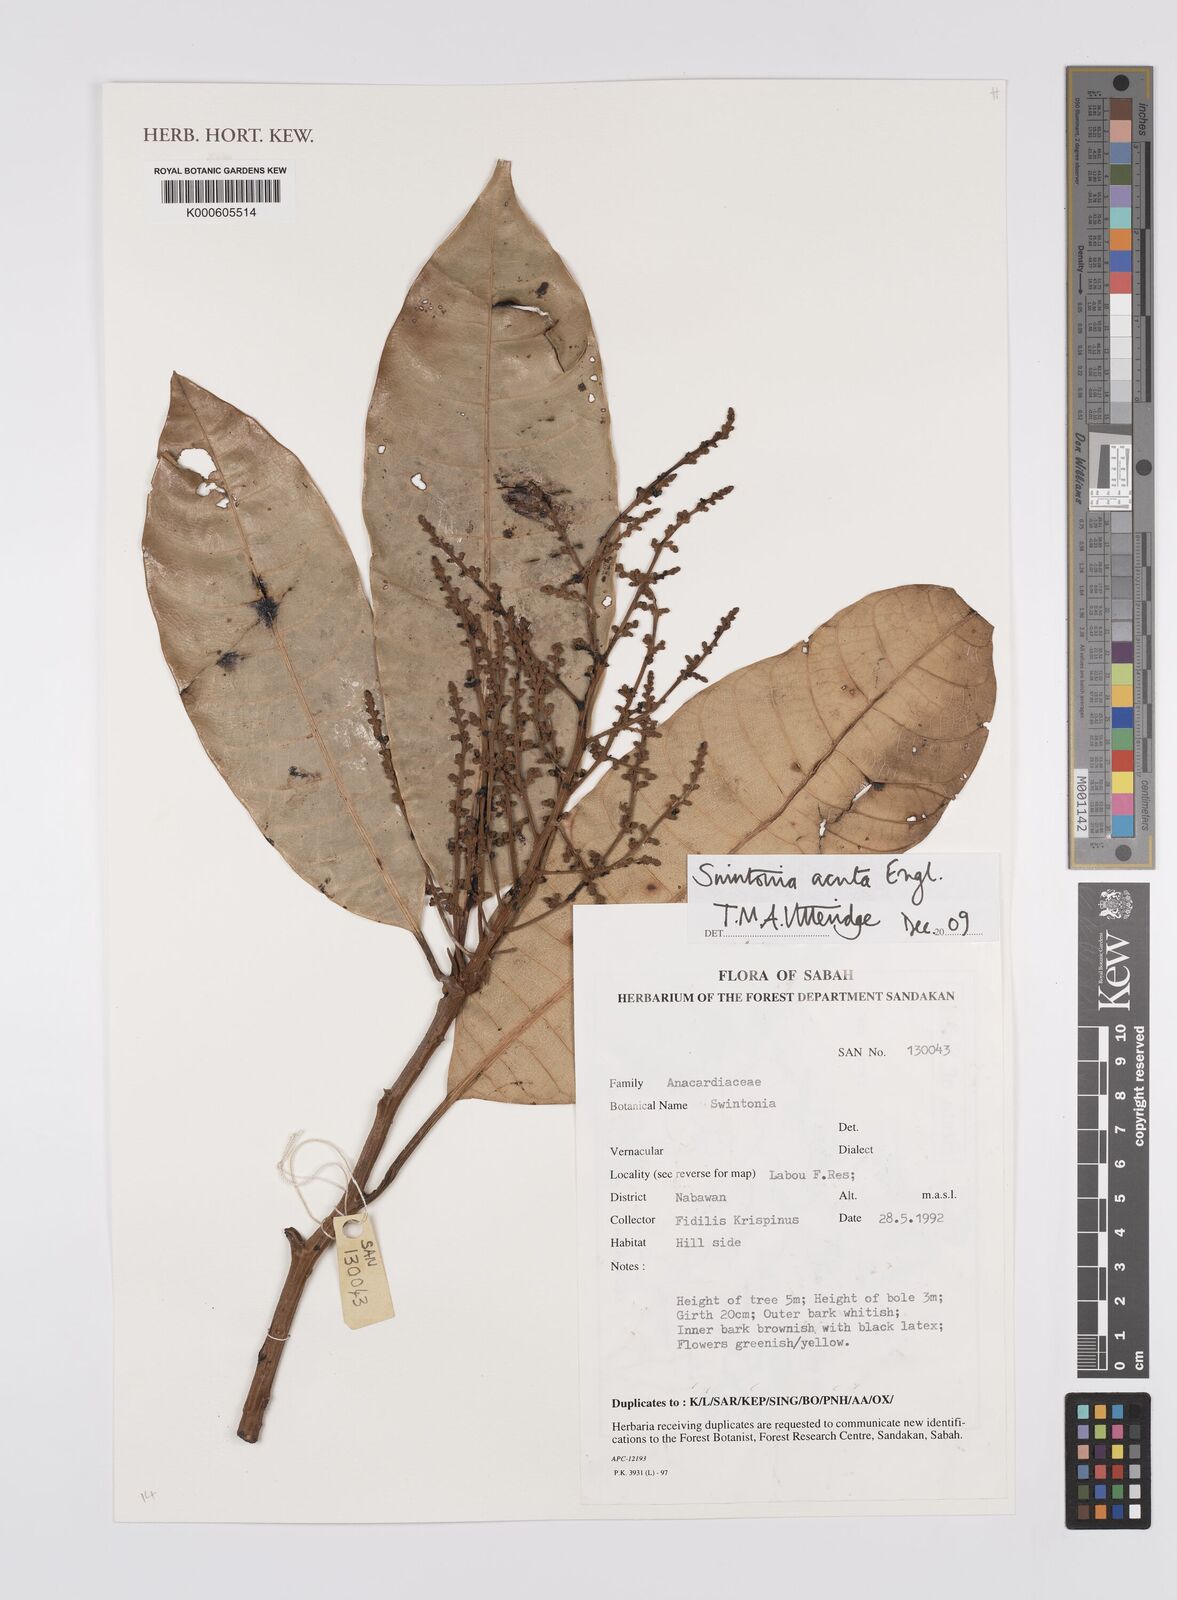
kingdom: Plantae
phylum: Tracheophyta
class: Magnoliopsida
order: Sapindales
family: Anacardiaceae
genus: Swintonia
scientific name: Swintonia acuta
